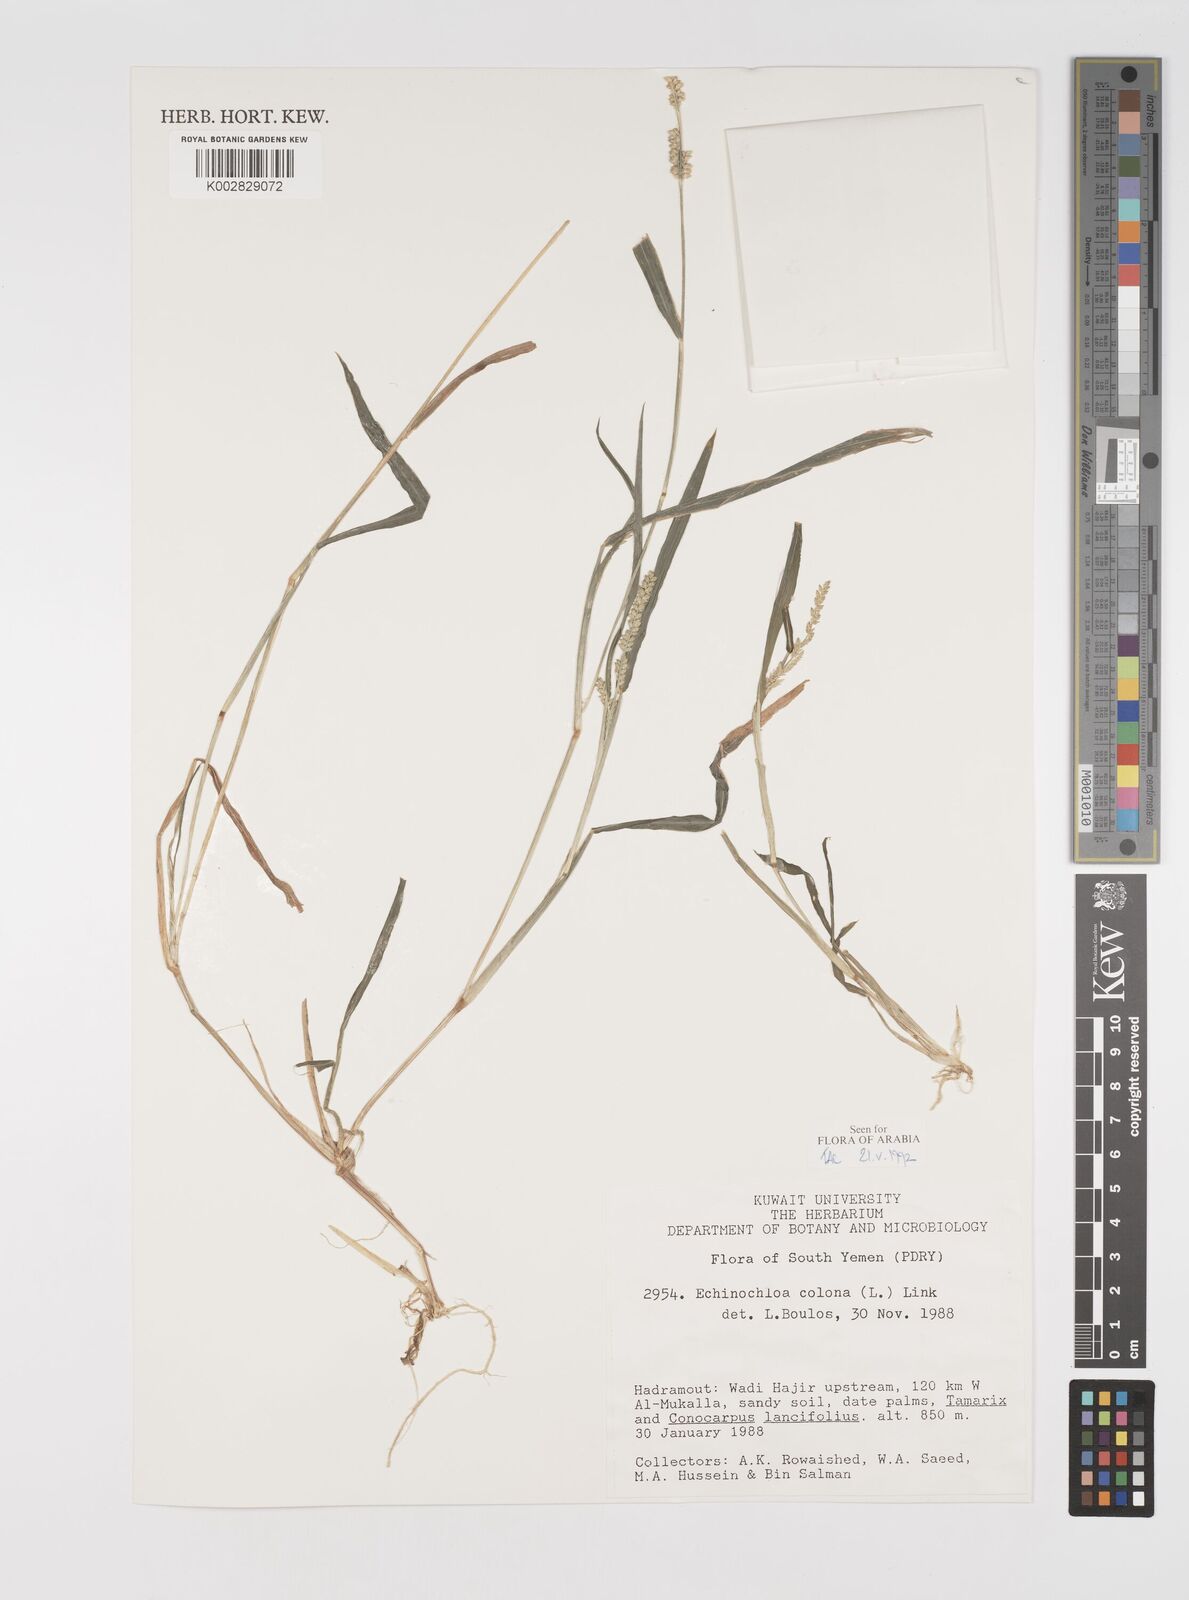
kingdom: Plantae
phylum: Tracheophyta
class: Liliopsida
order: Poales
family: Poaceae
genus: Echinochloa
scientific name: Echinochloa colonum
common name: Jungle rice
